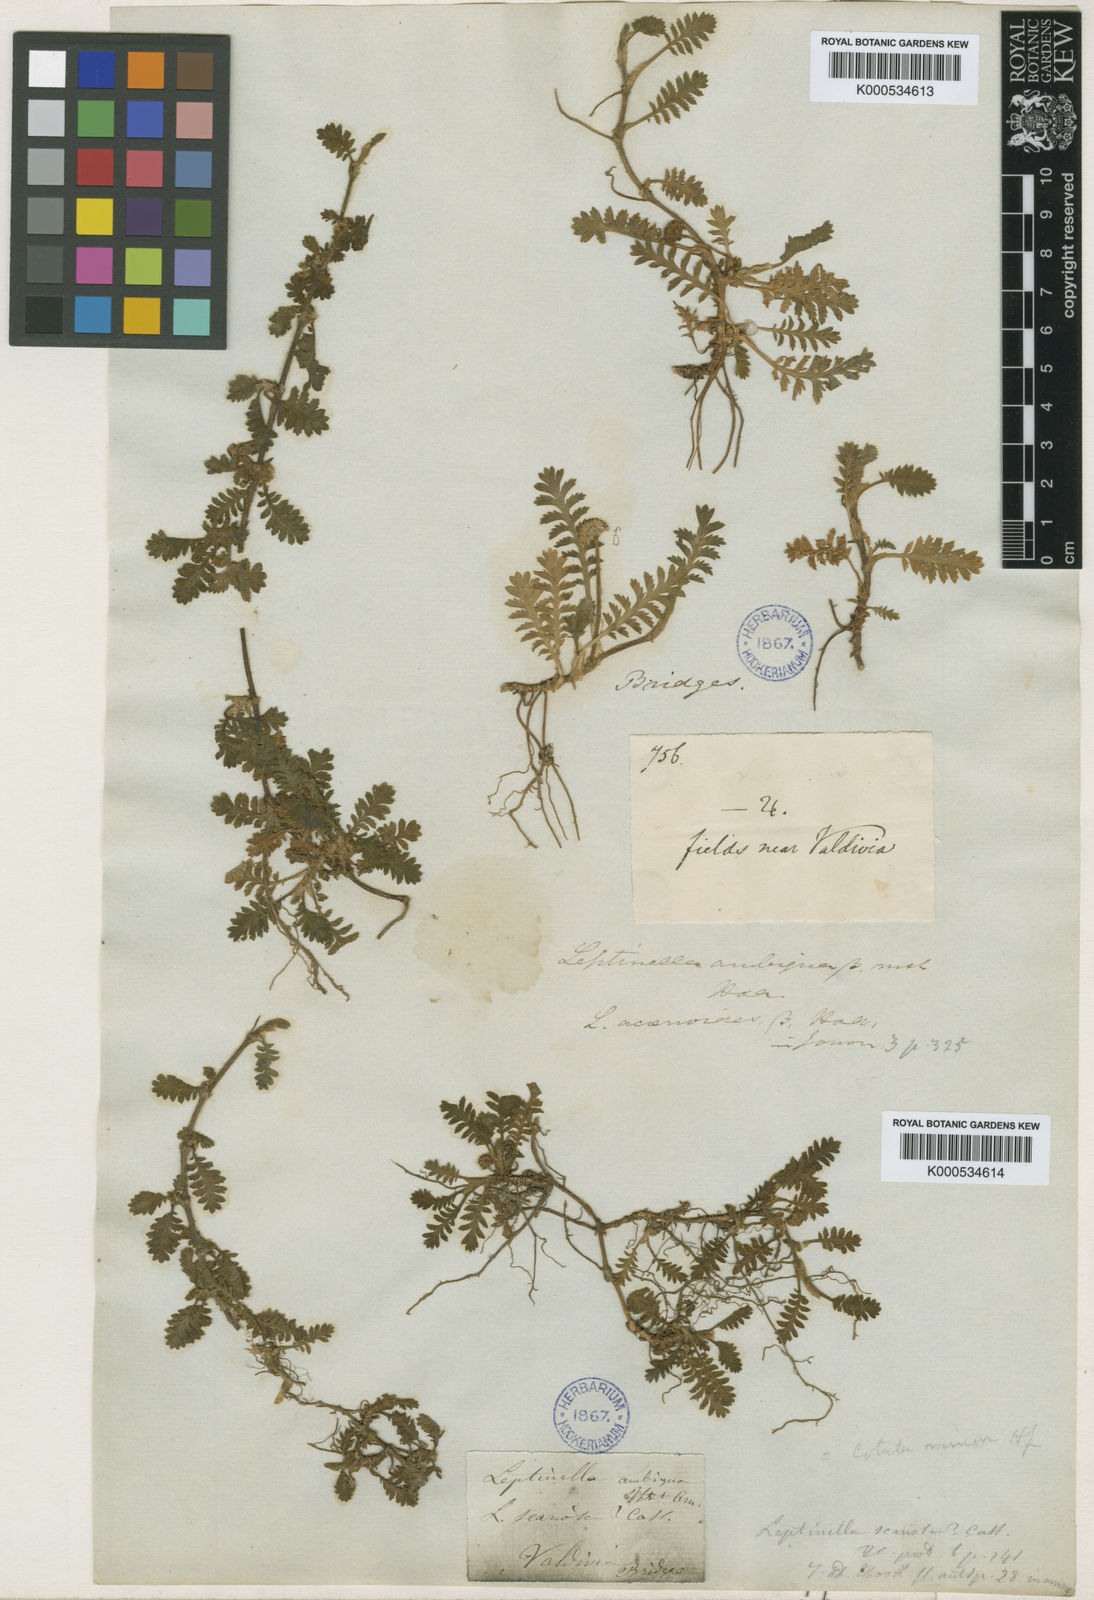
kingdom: Plantae
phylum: Tracheophyta
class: Magnoliopsida
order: Asterales
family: Asteraceae
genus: Leptinella
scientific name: Leptinella scariosa
